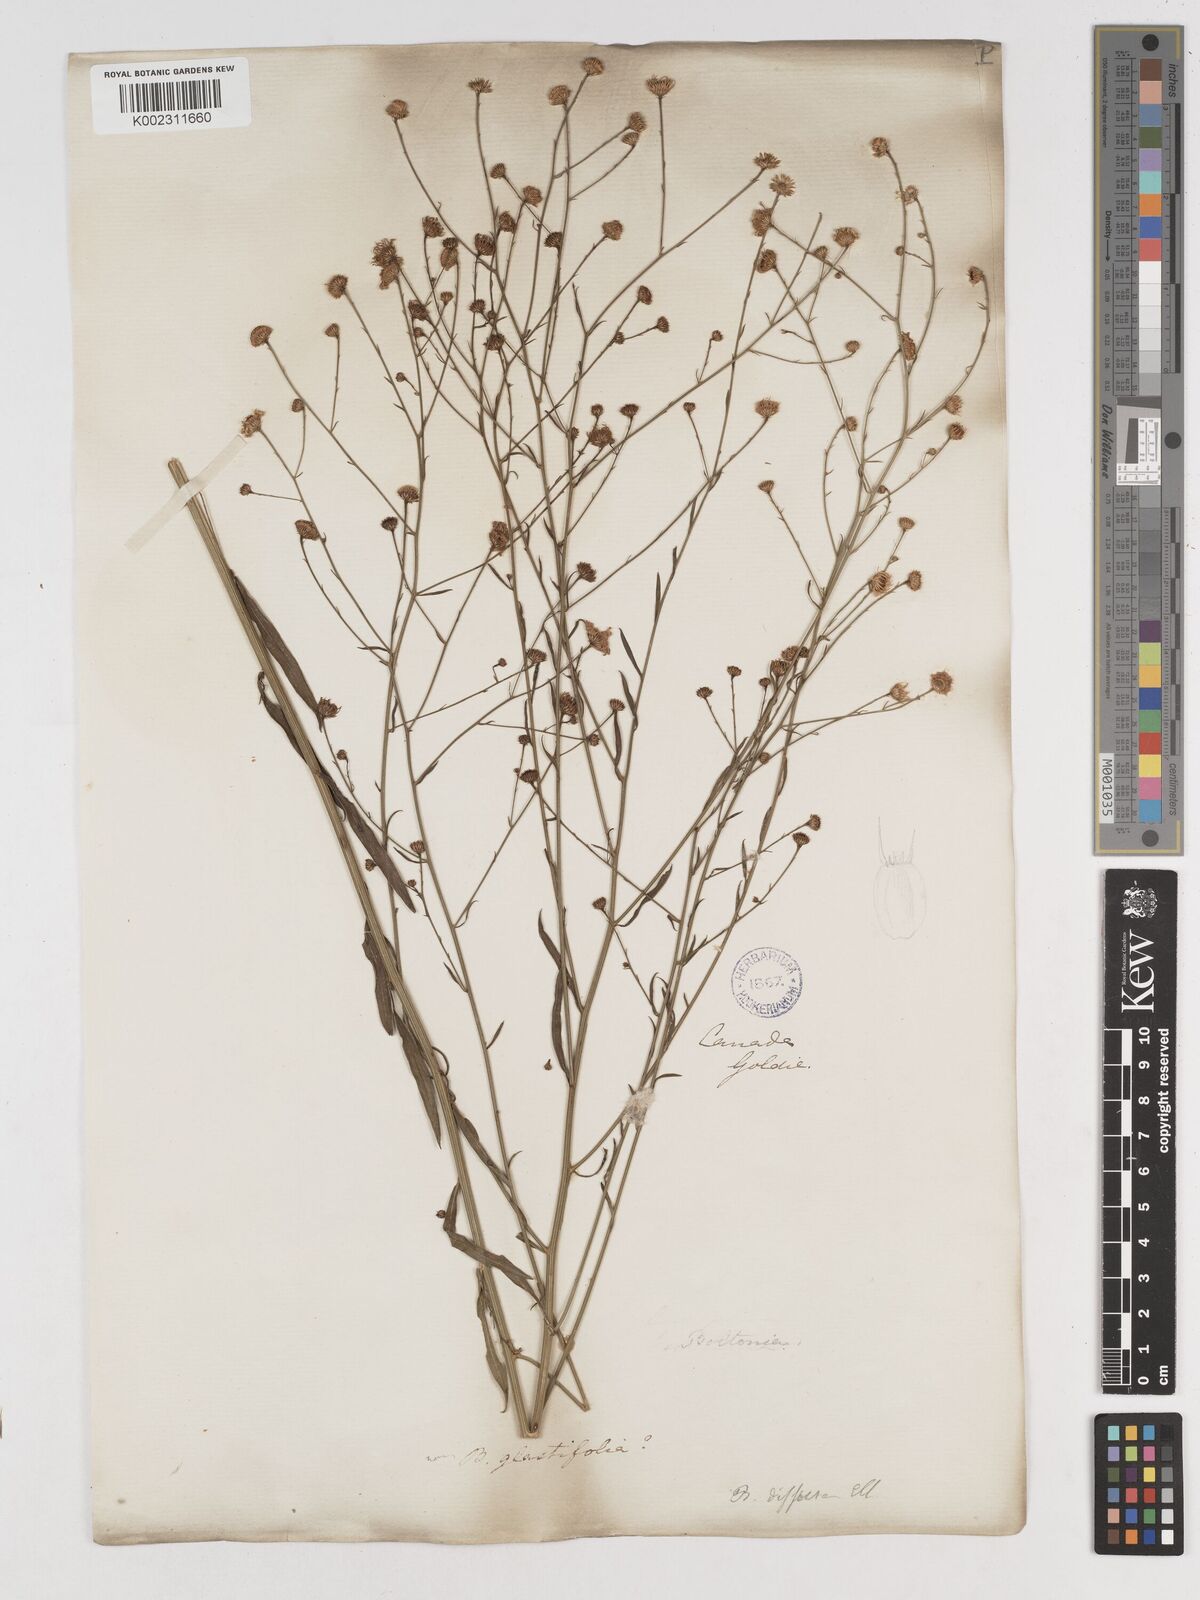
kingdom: Plantae
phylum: Tracheophyta
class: Magnoliopsida
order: Asterales
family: Asteraceae
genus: Boltonia
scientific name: Boltonia diffusa
